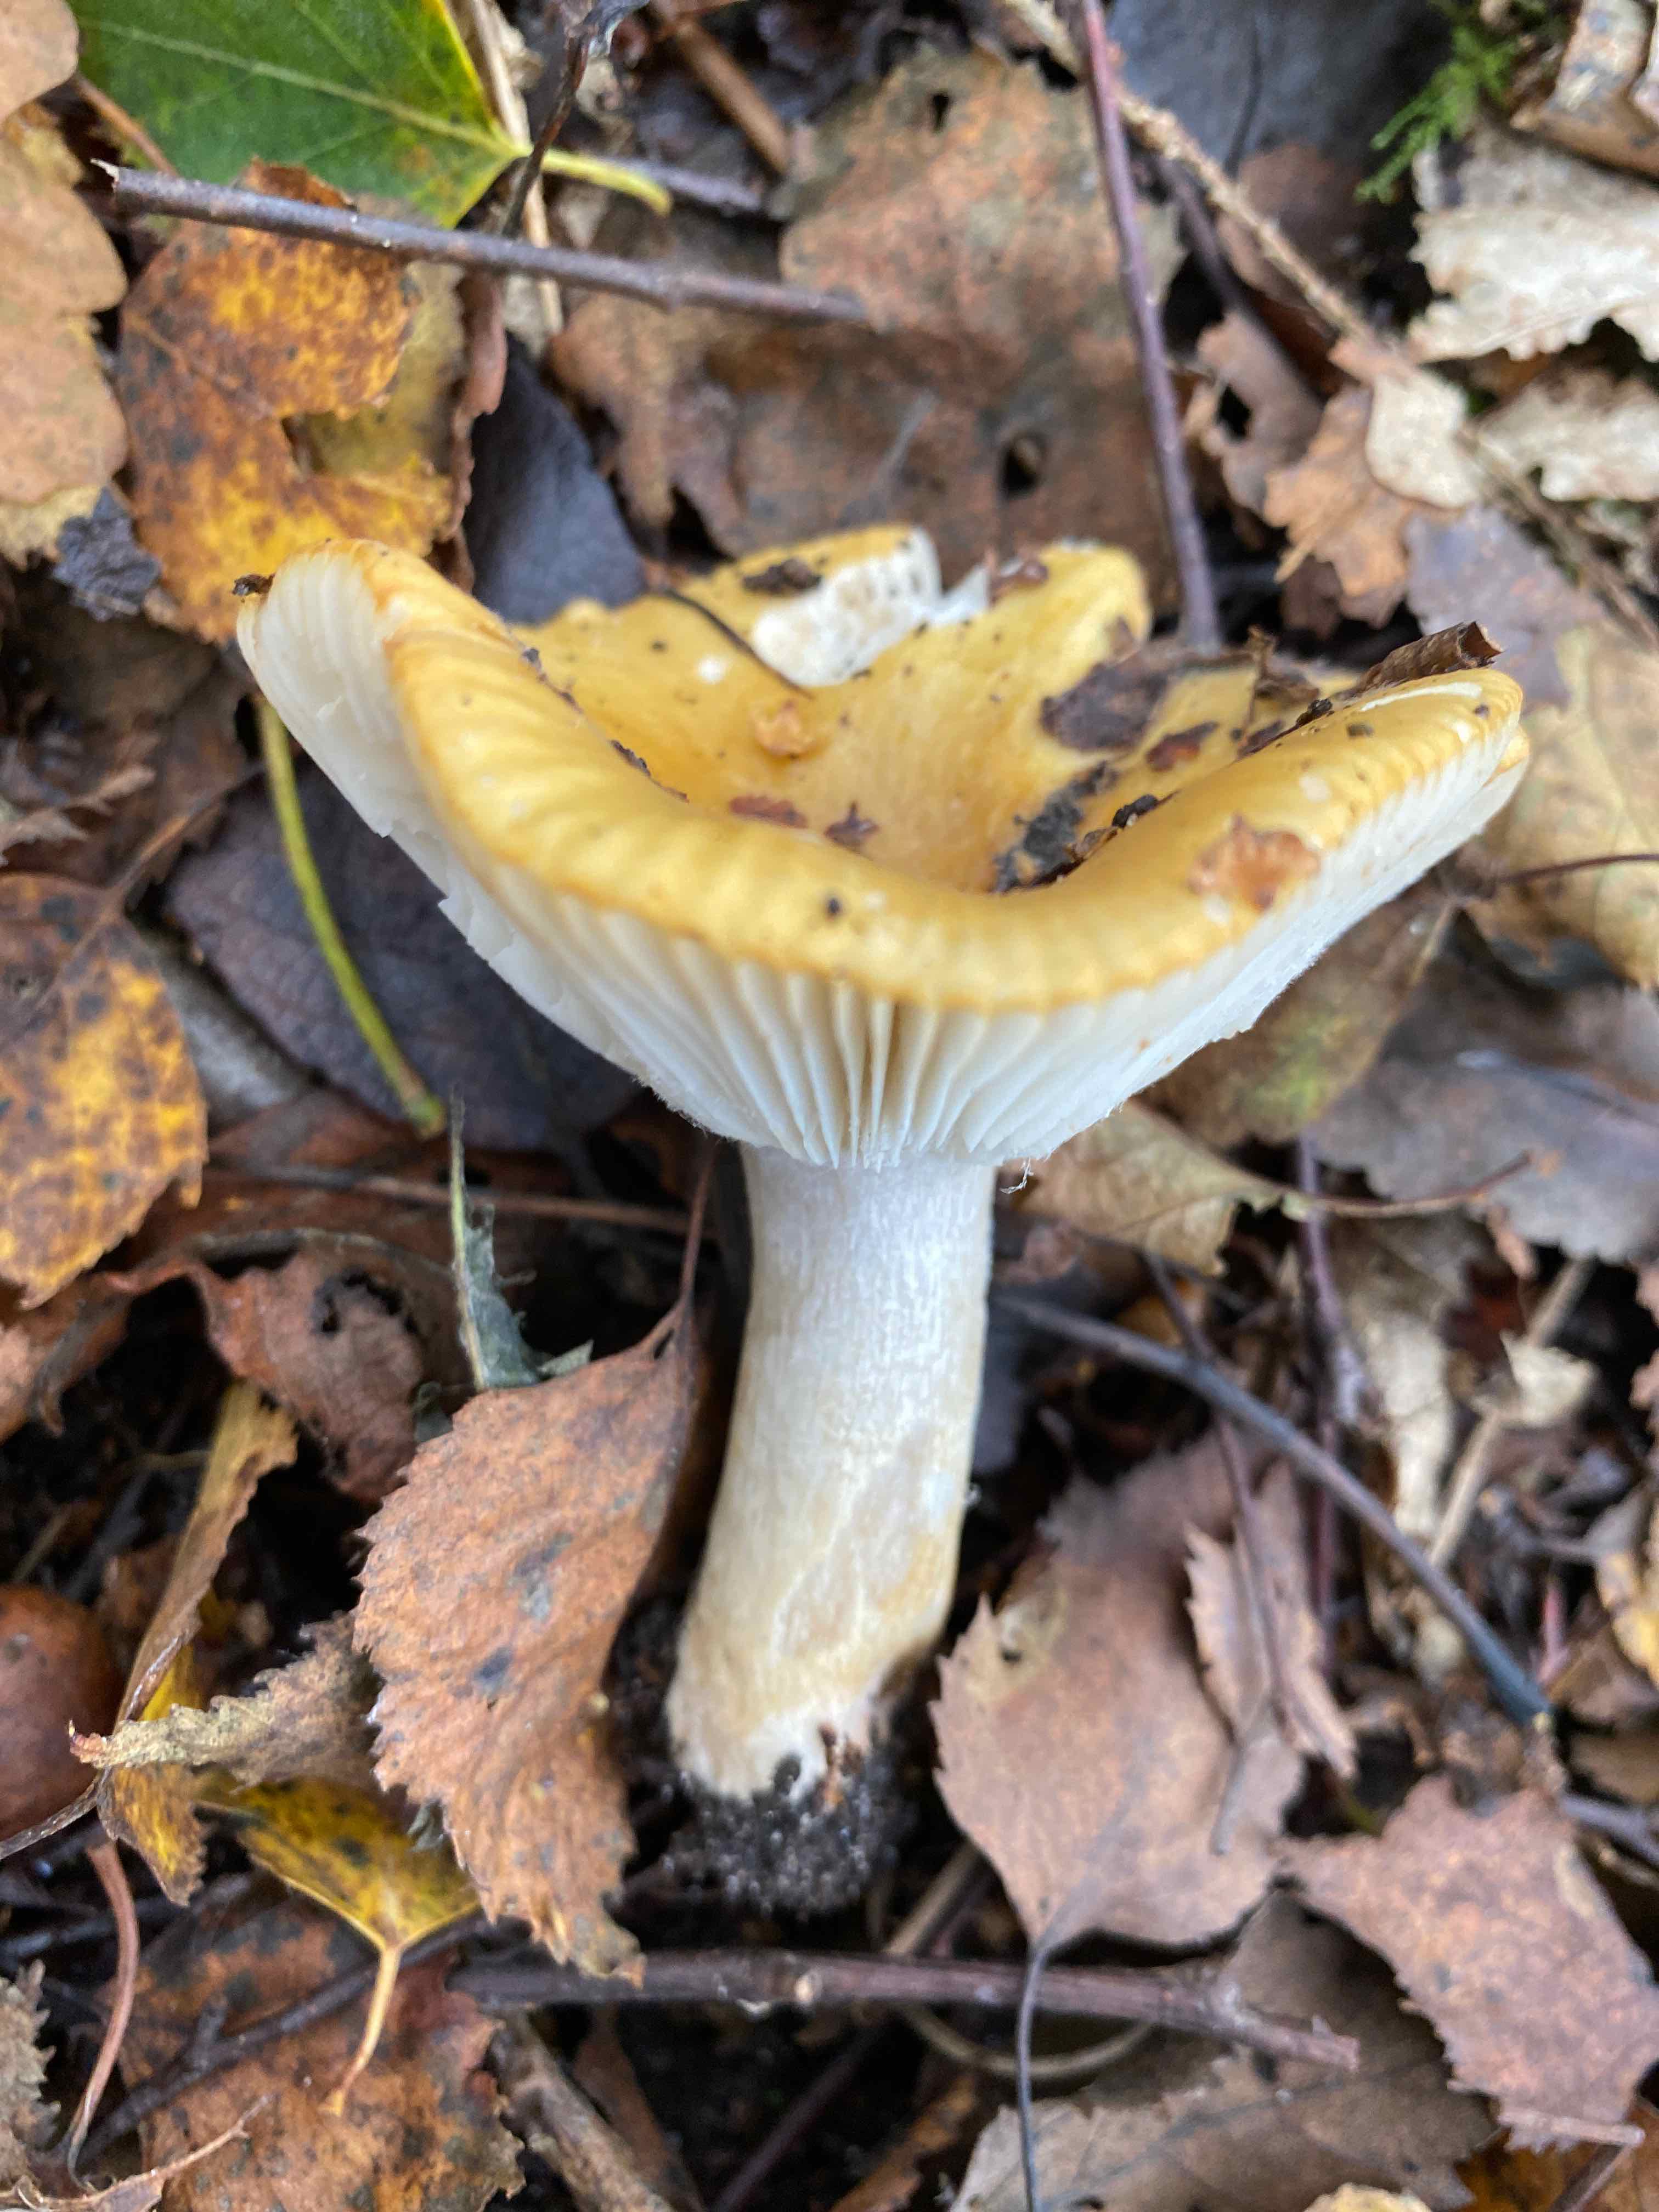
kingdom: Fungi
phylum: Basidiomycota
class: Agaricomycetes
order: Russulales
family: Russulaceae
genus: Russula
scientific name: Russula ochroleuca
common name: okkergul skørhat
